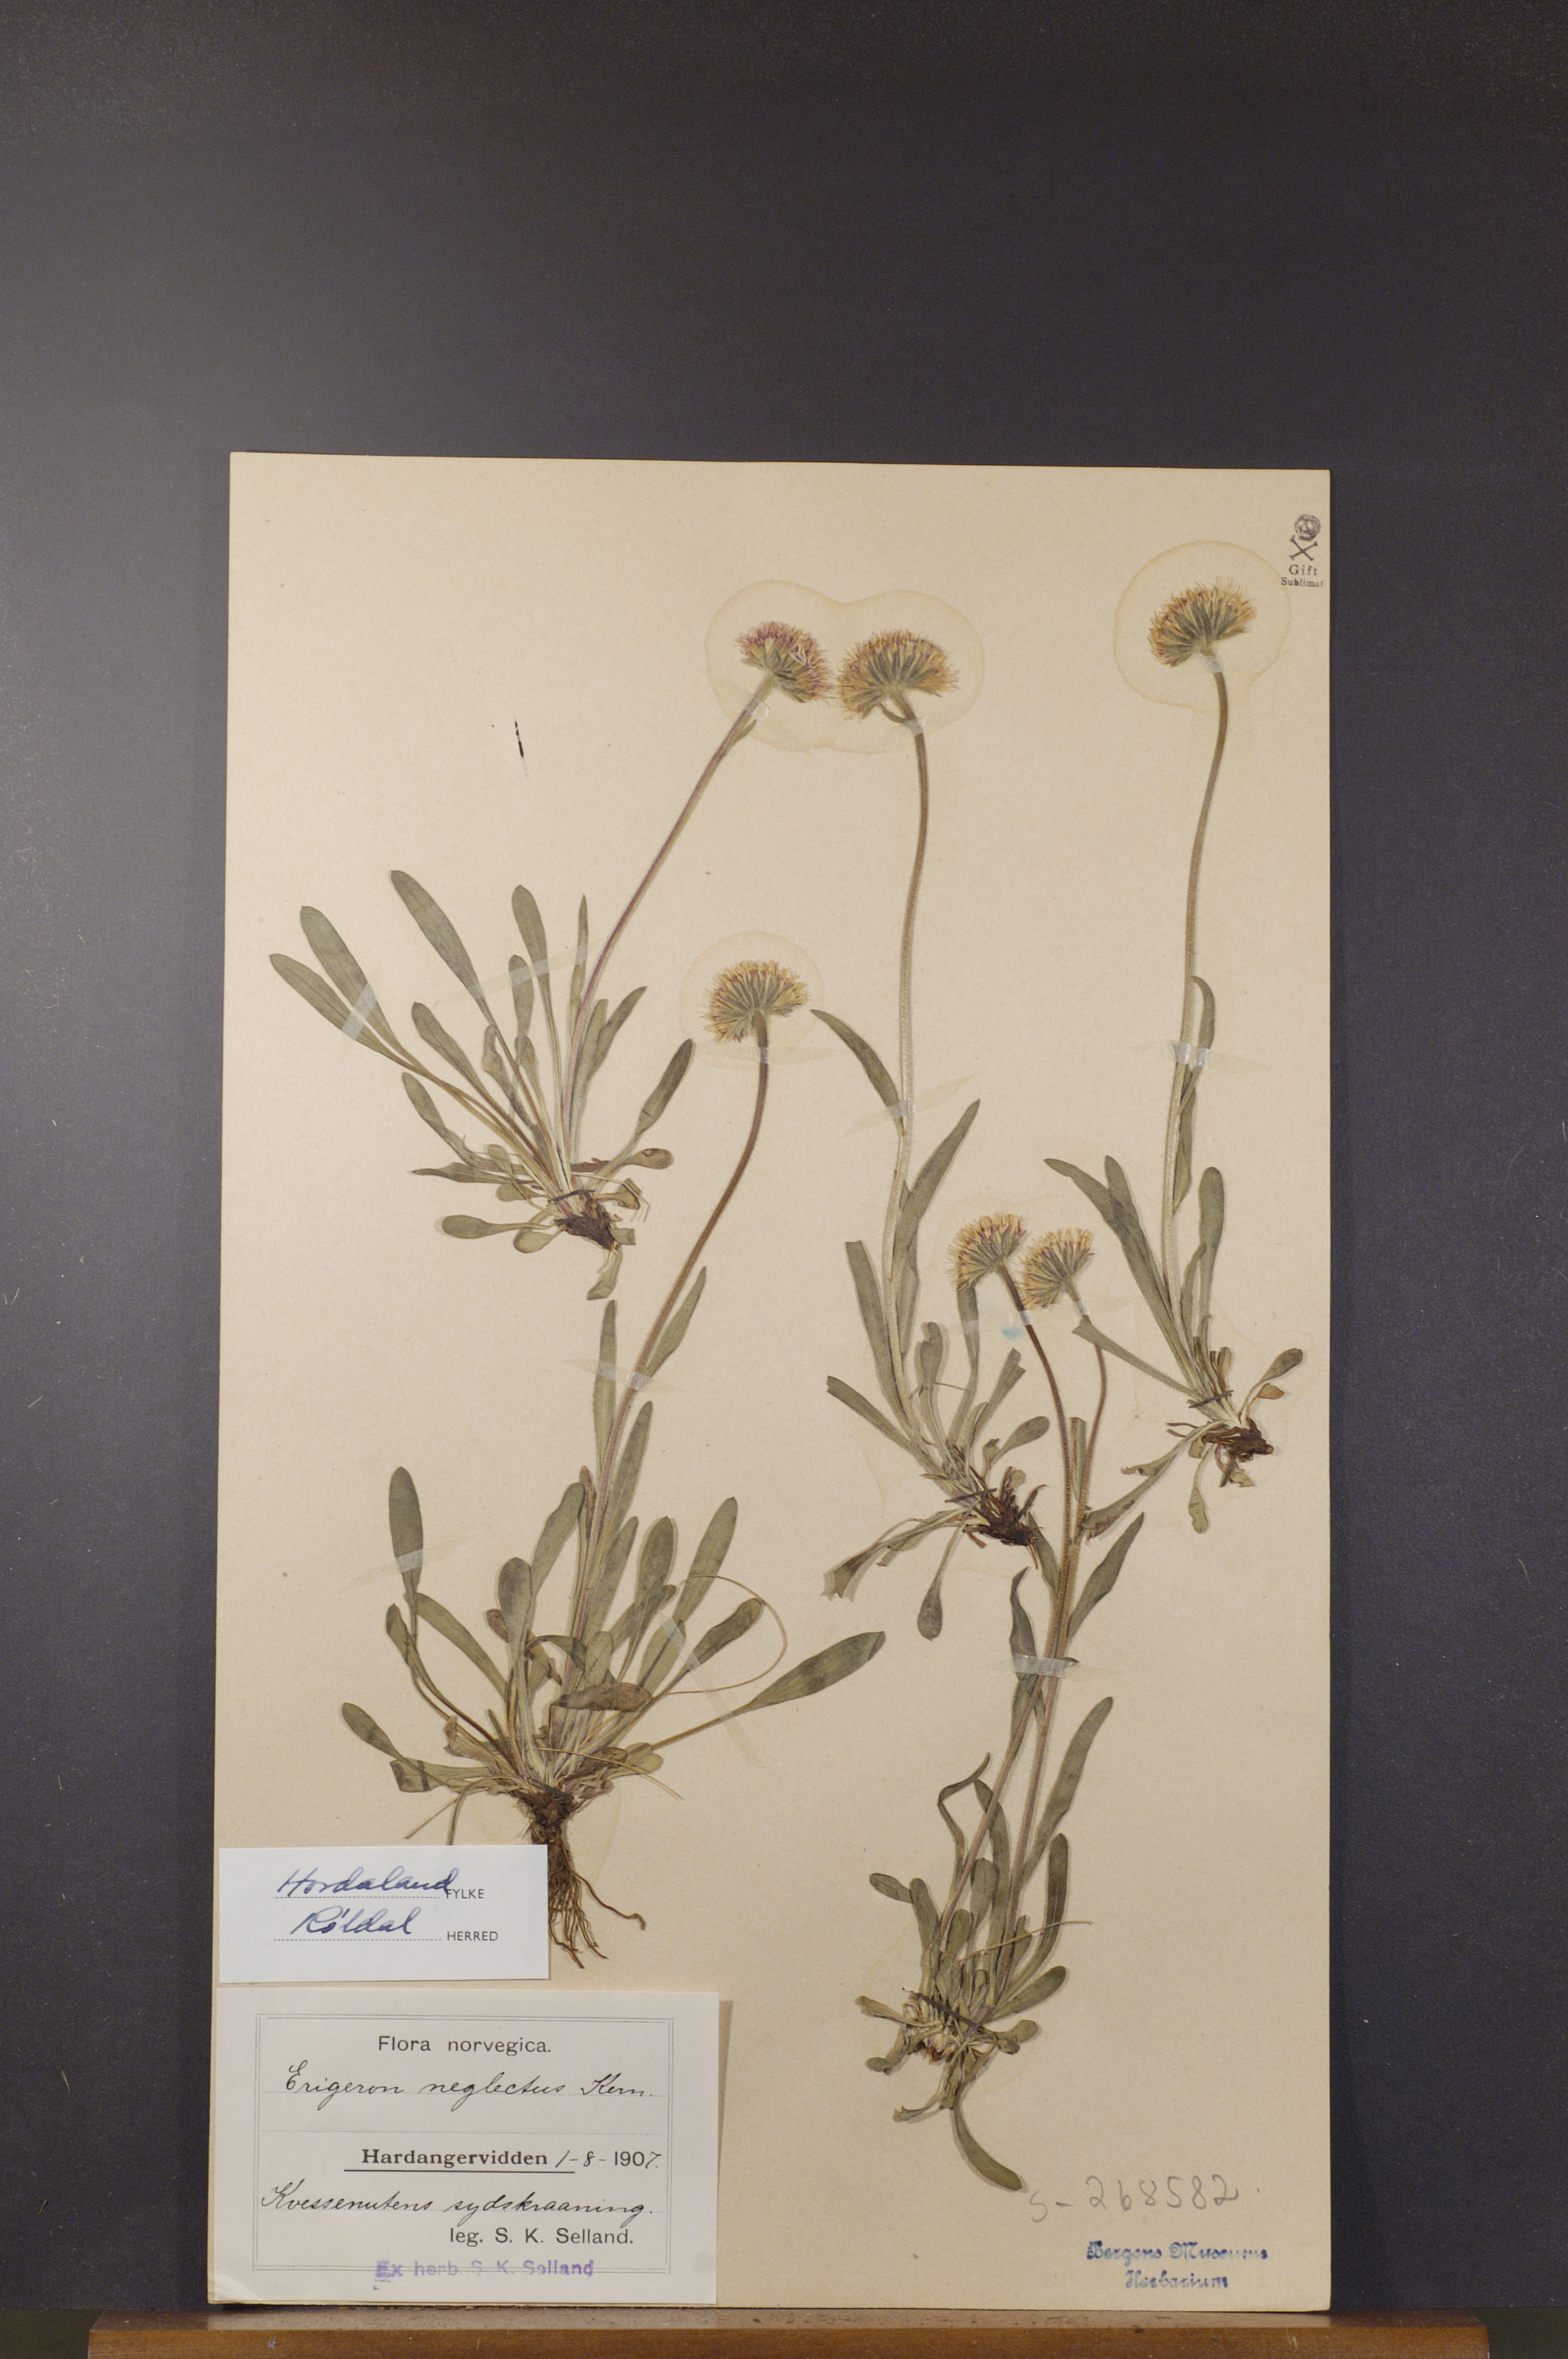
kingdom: Plantae
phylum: Tracheophyta
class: Magnoliopsida
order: Asterales
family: Asteraceae
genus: Erigeron
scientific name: Erigeron neglectus
